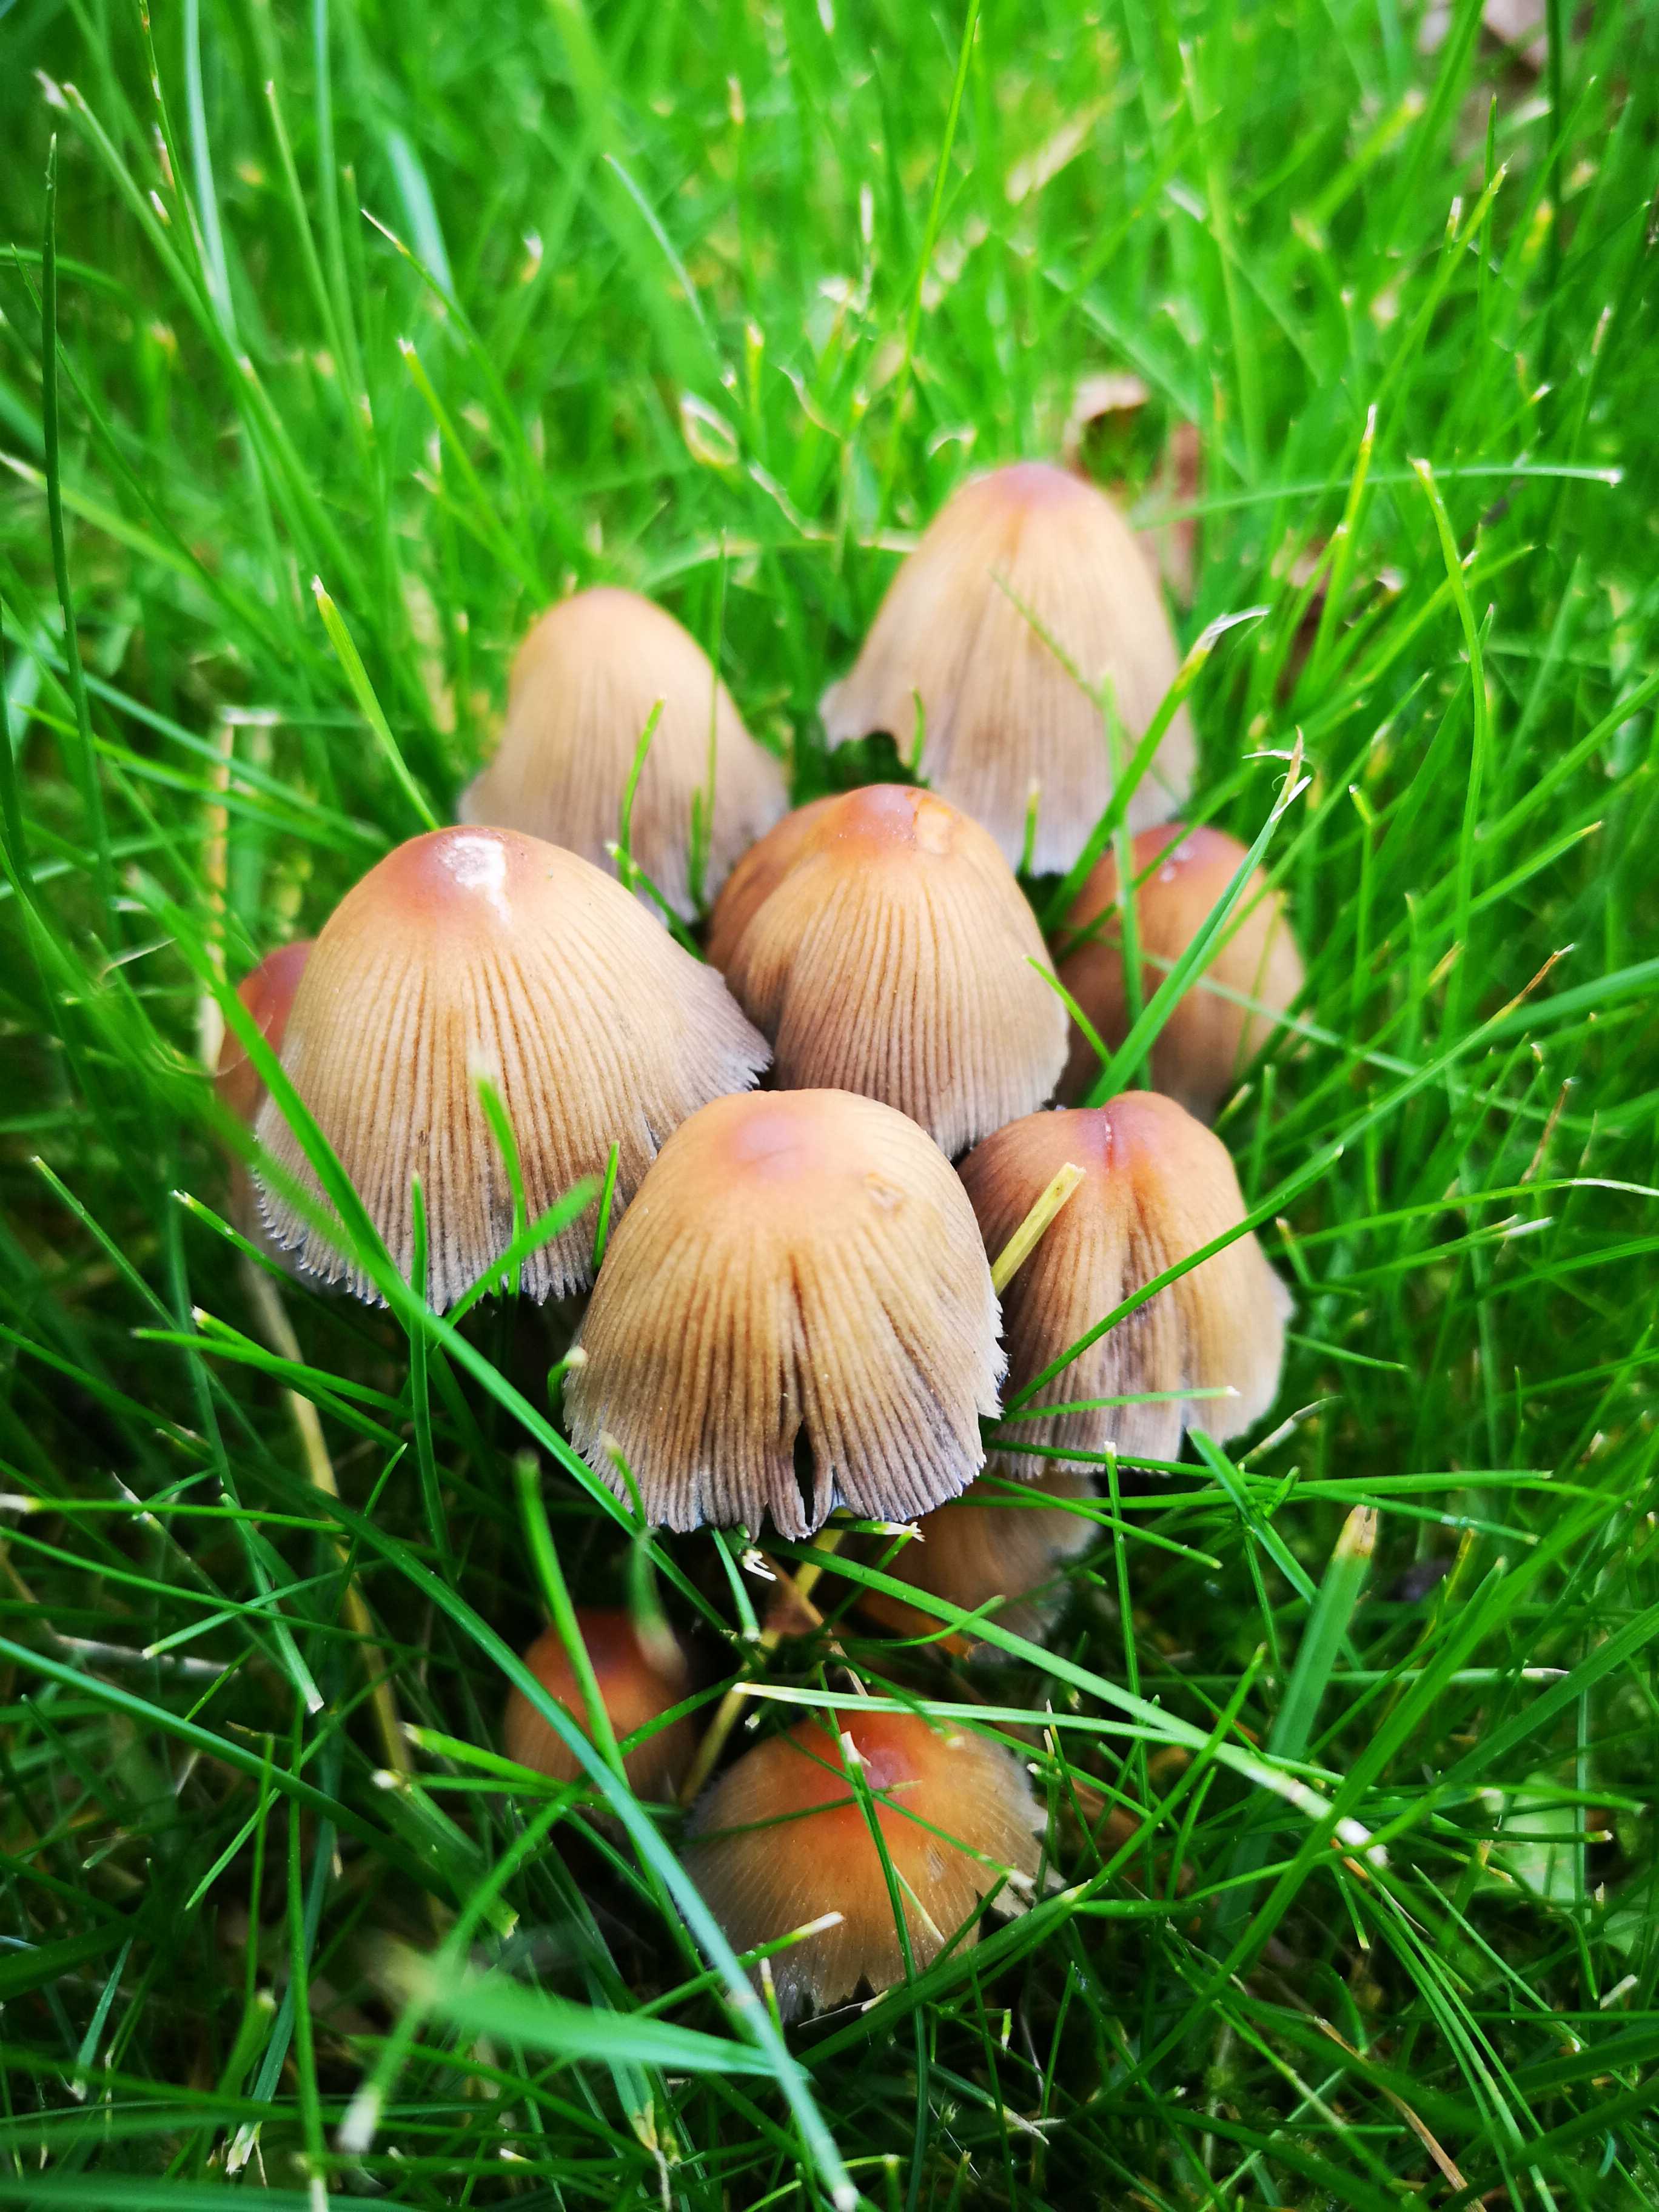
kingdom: Fungi
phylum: Basidiomycota
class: Agaricomycetes
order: Agaricales
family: Psathyrellaceae
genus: Coprinellus
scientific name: Coprinellus micaceus
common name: glimmer-blækhat
